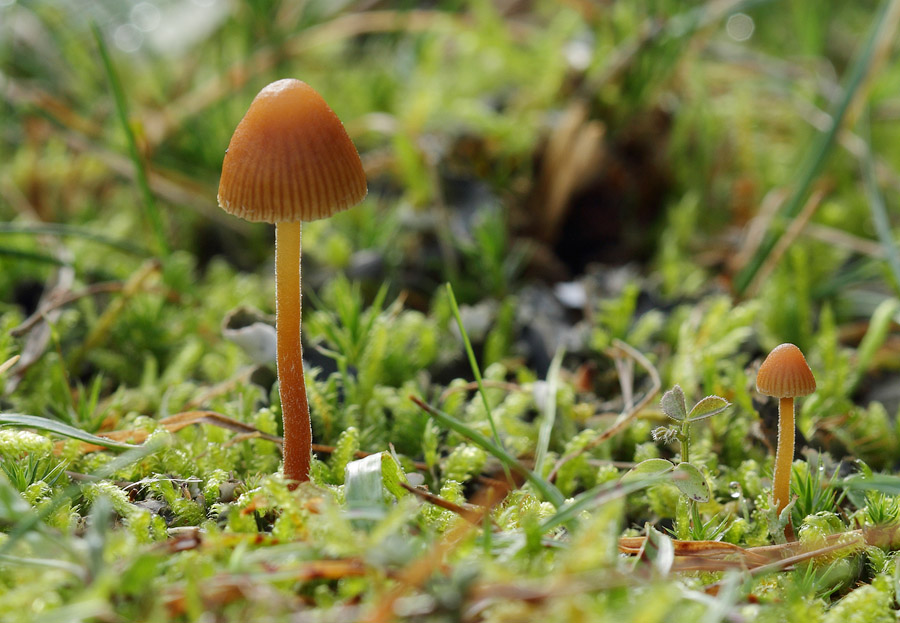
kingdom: Fungi
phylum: Basidiomycota
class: Agaricomycetes
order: Agaricales
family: Hymenogastraceae
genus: Galerina
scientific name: Galerina atkinsoniana
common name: Hairy bell
